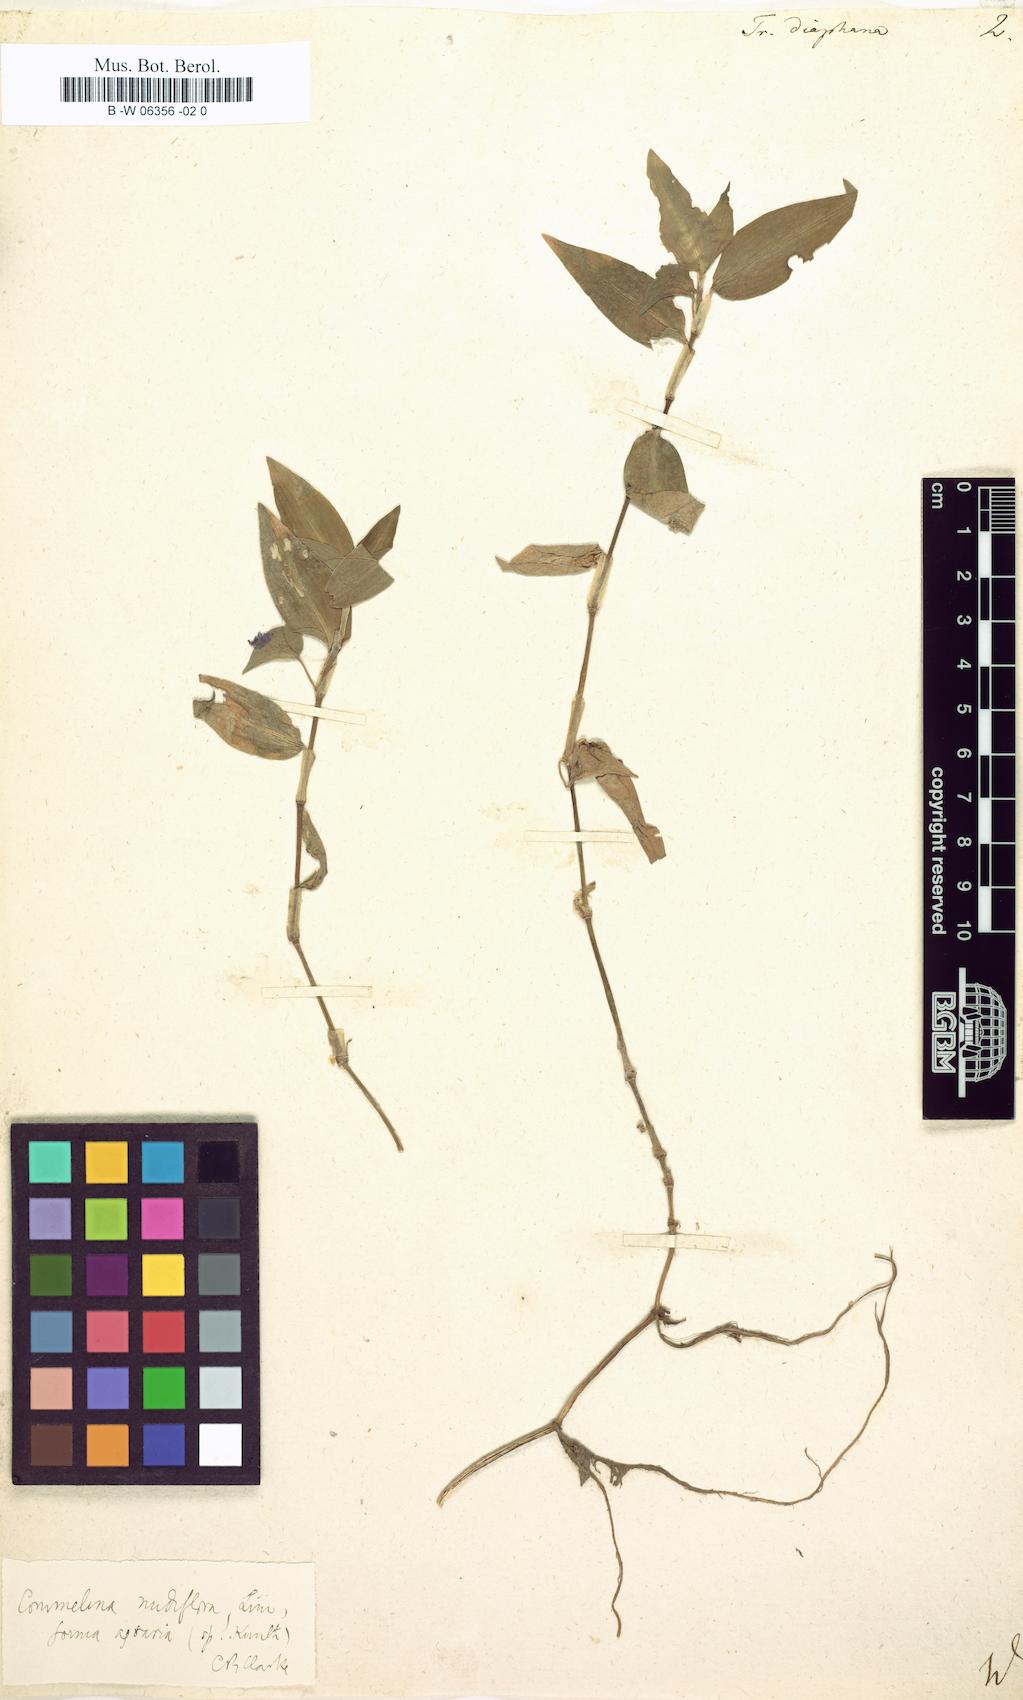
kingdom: Plantae
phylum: Tracheophyta
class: Liliopsida
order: Commelinales
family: Commelinaceae
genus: Callisia
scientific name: Callisia gracilis
